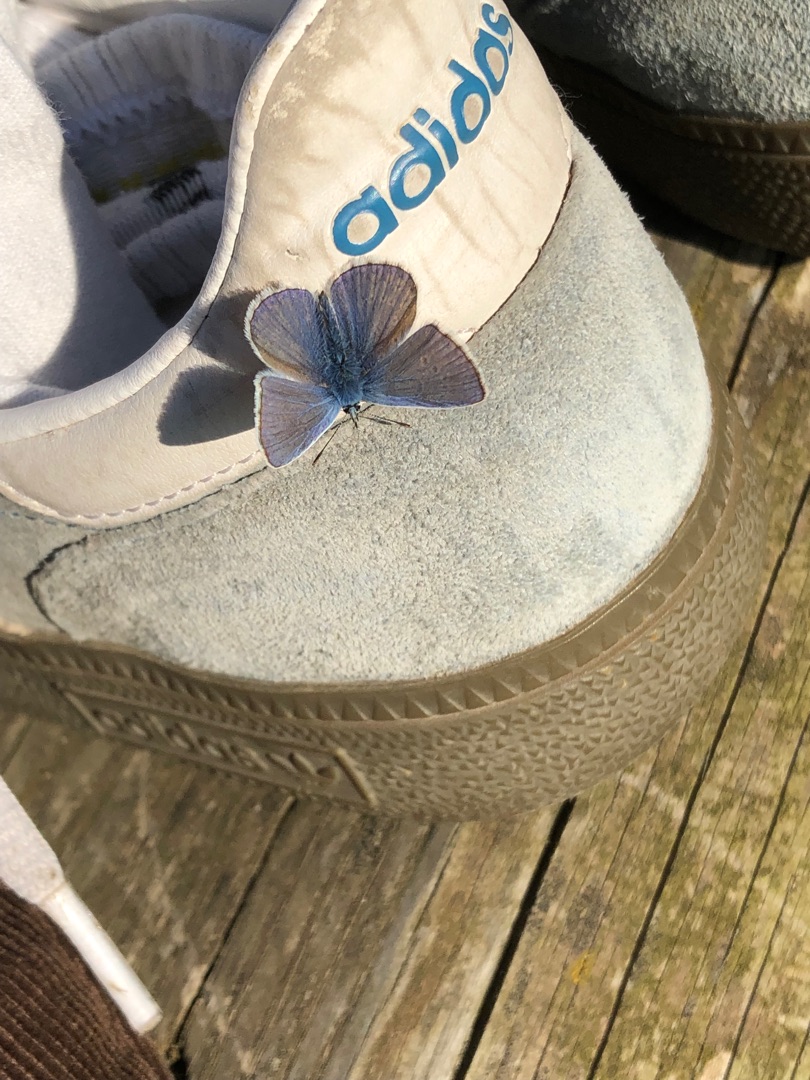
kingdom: Animalia
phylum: Arthropoda
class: Insecta
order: Lepidoptera
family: Lycaenidae
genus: Polyommatus
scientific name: Polyommatus icarus
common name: Almindelig blåfugl
